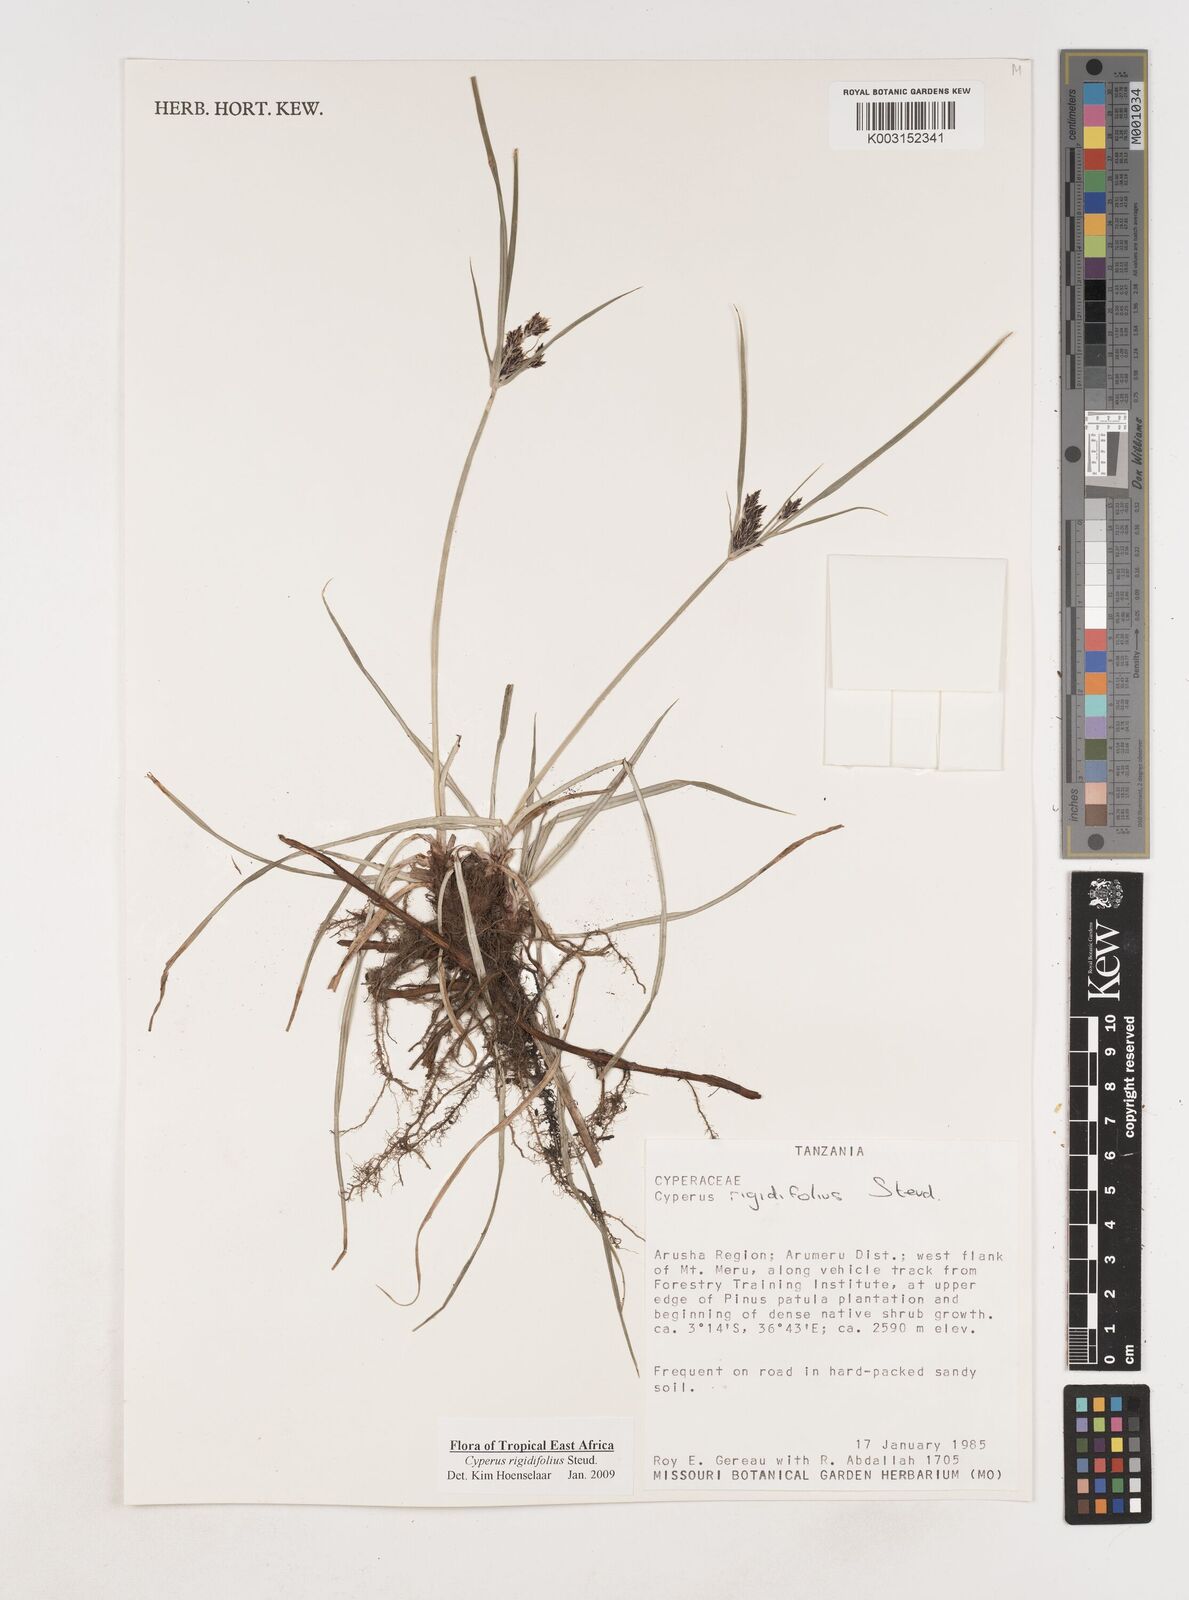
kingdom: Plantae
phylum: Tracheophyta
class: Liliopsida
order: Poales
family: Cyperaceae
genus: Cyperus
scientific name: Cyperus rigidifolius
